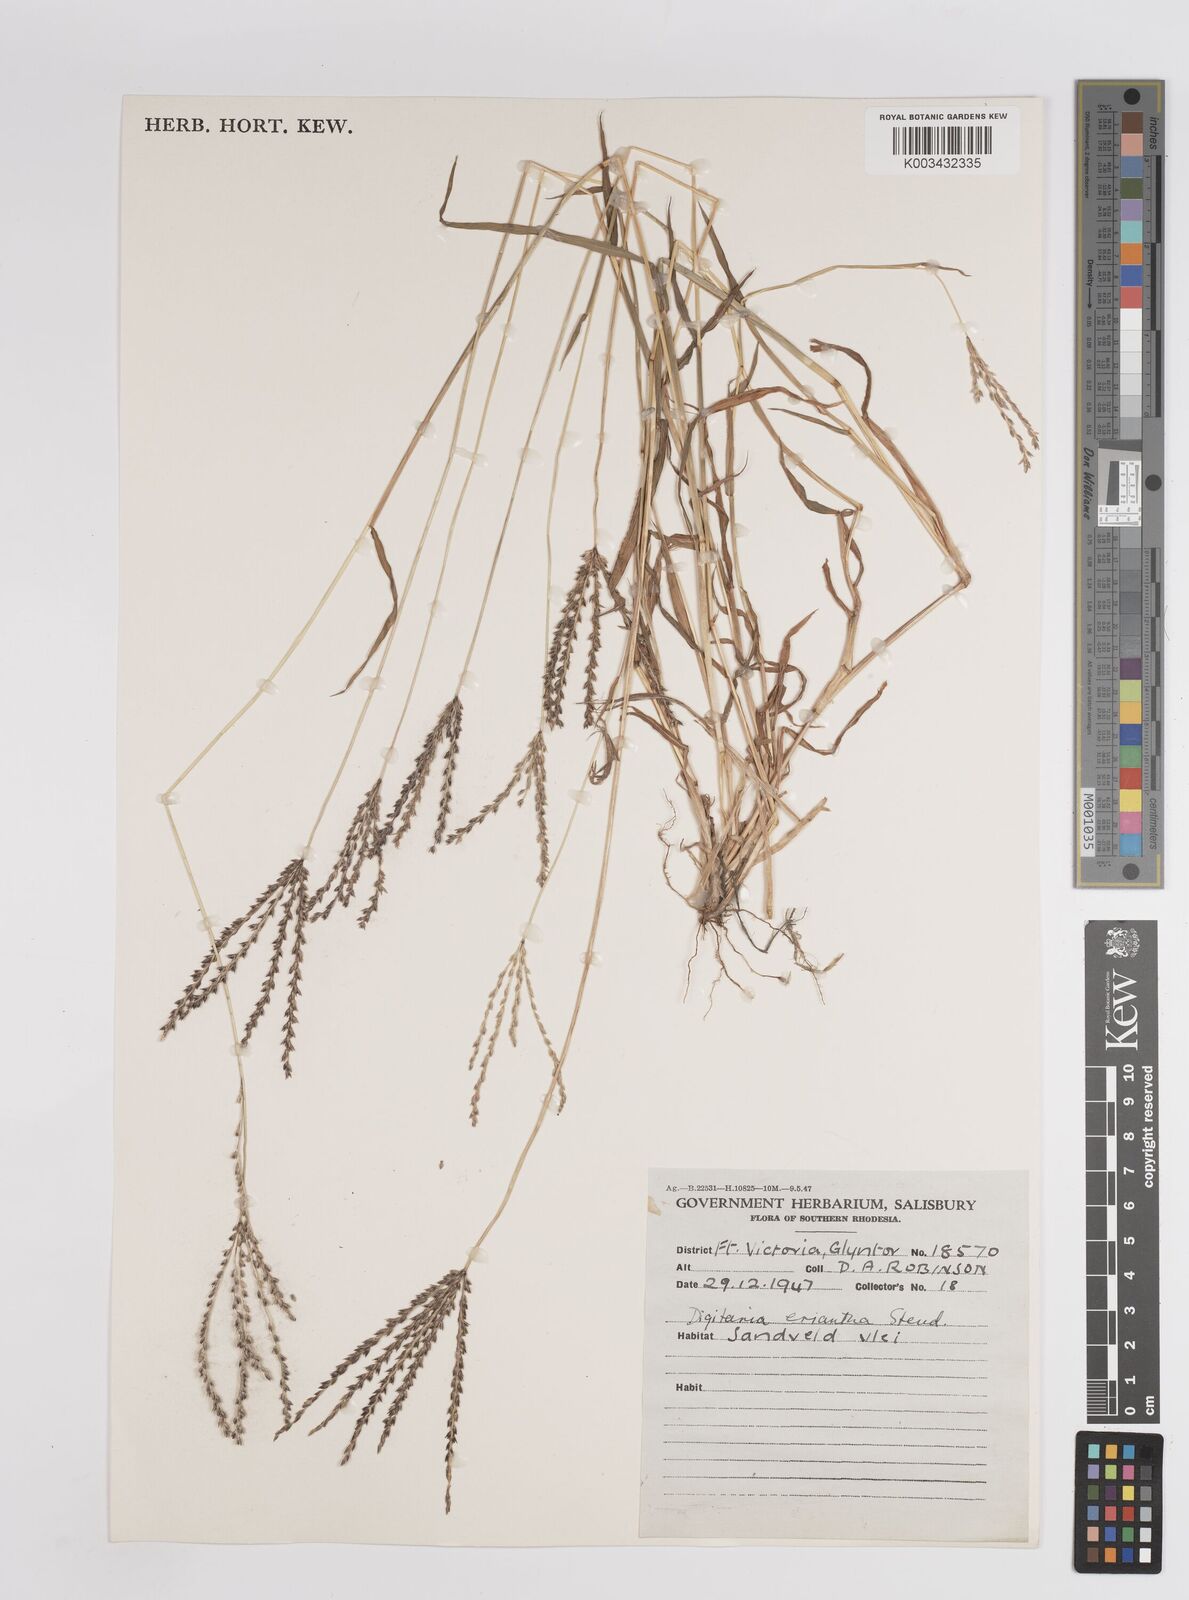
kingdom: Plantae
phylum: Tracheophyta
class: Liliopsida
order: Poales
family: Poaceae
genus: Digitaria
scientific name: Digitaria eriantha
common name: Digitgrass
